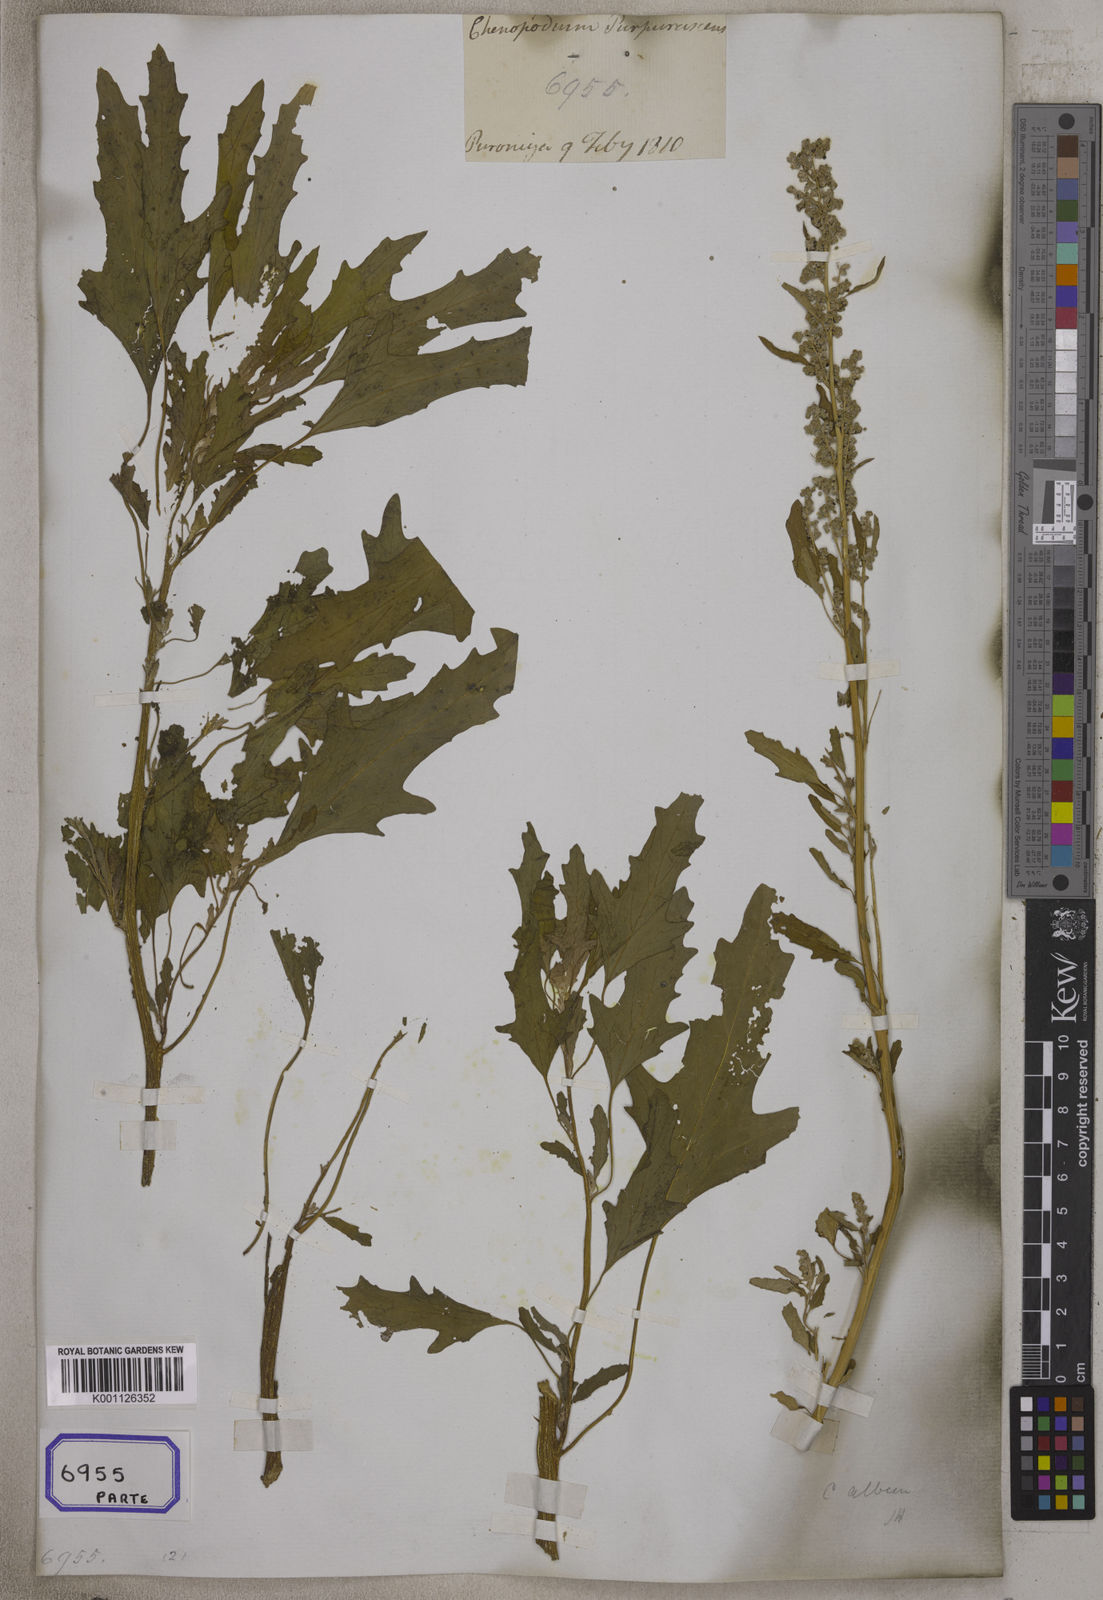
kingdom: Plantae
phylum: Tracheophyta
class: Magnoliopsida
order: Caryophyllales
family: Amaranthaceae
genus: Chenopodium
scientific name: Chenopodium
